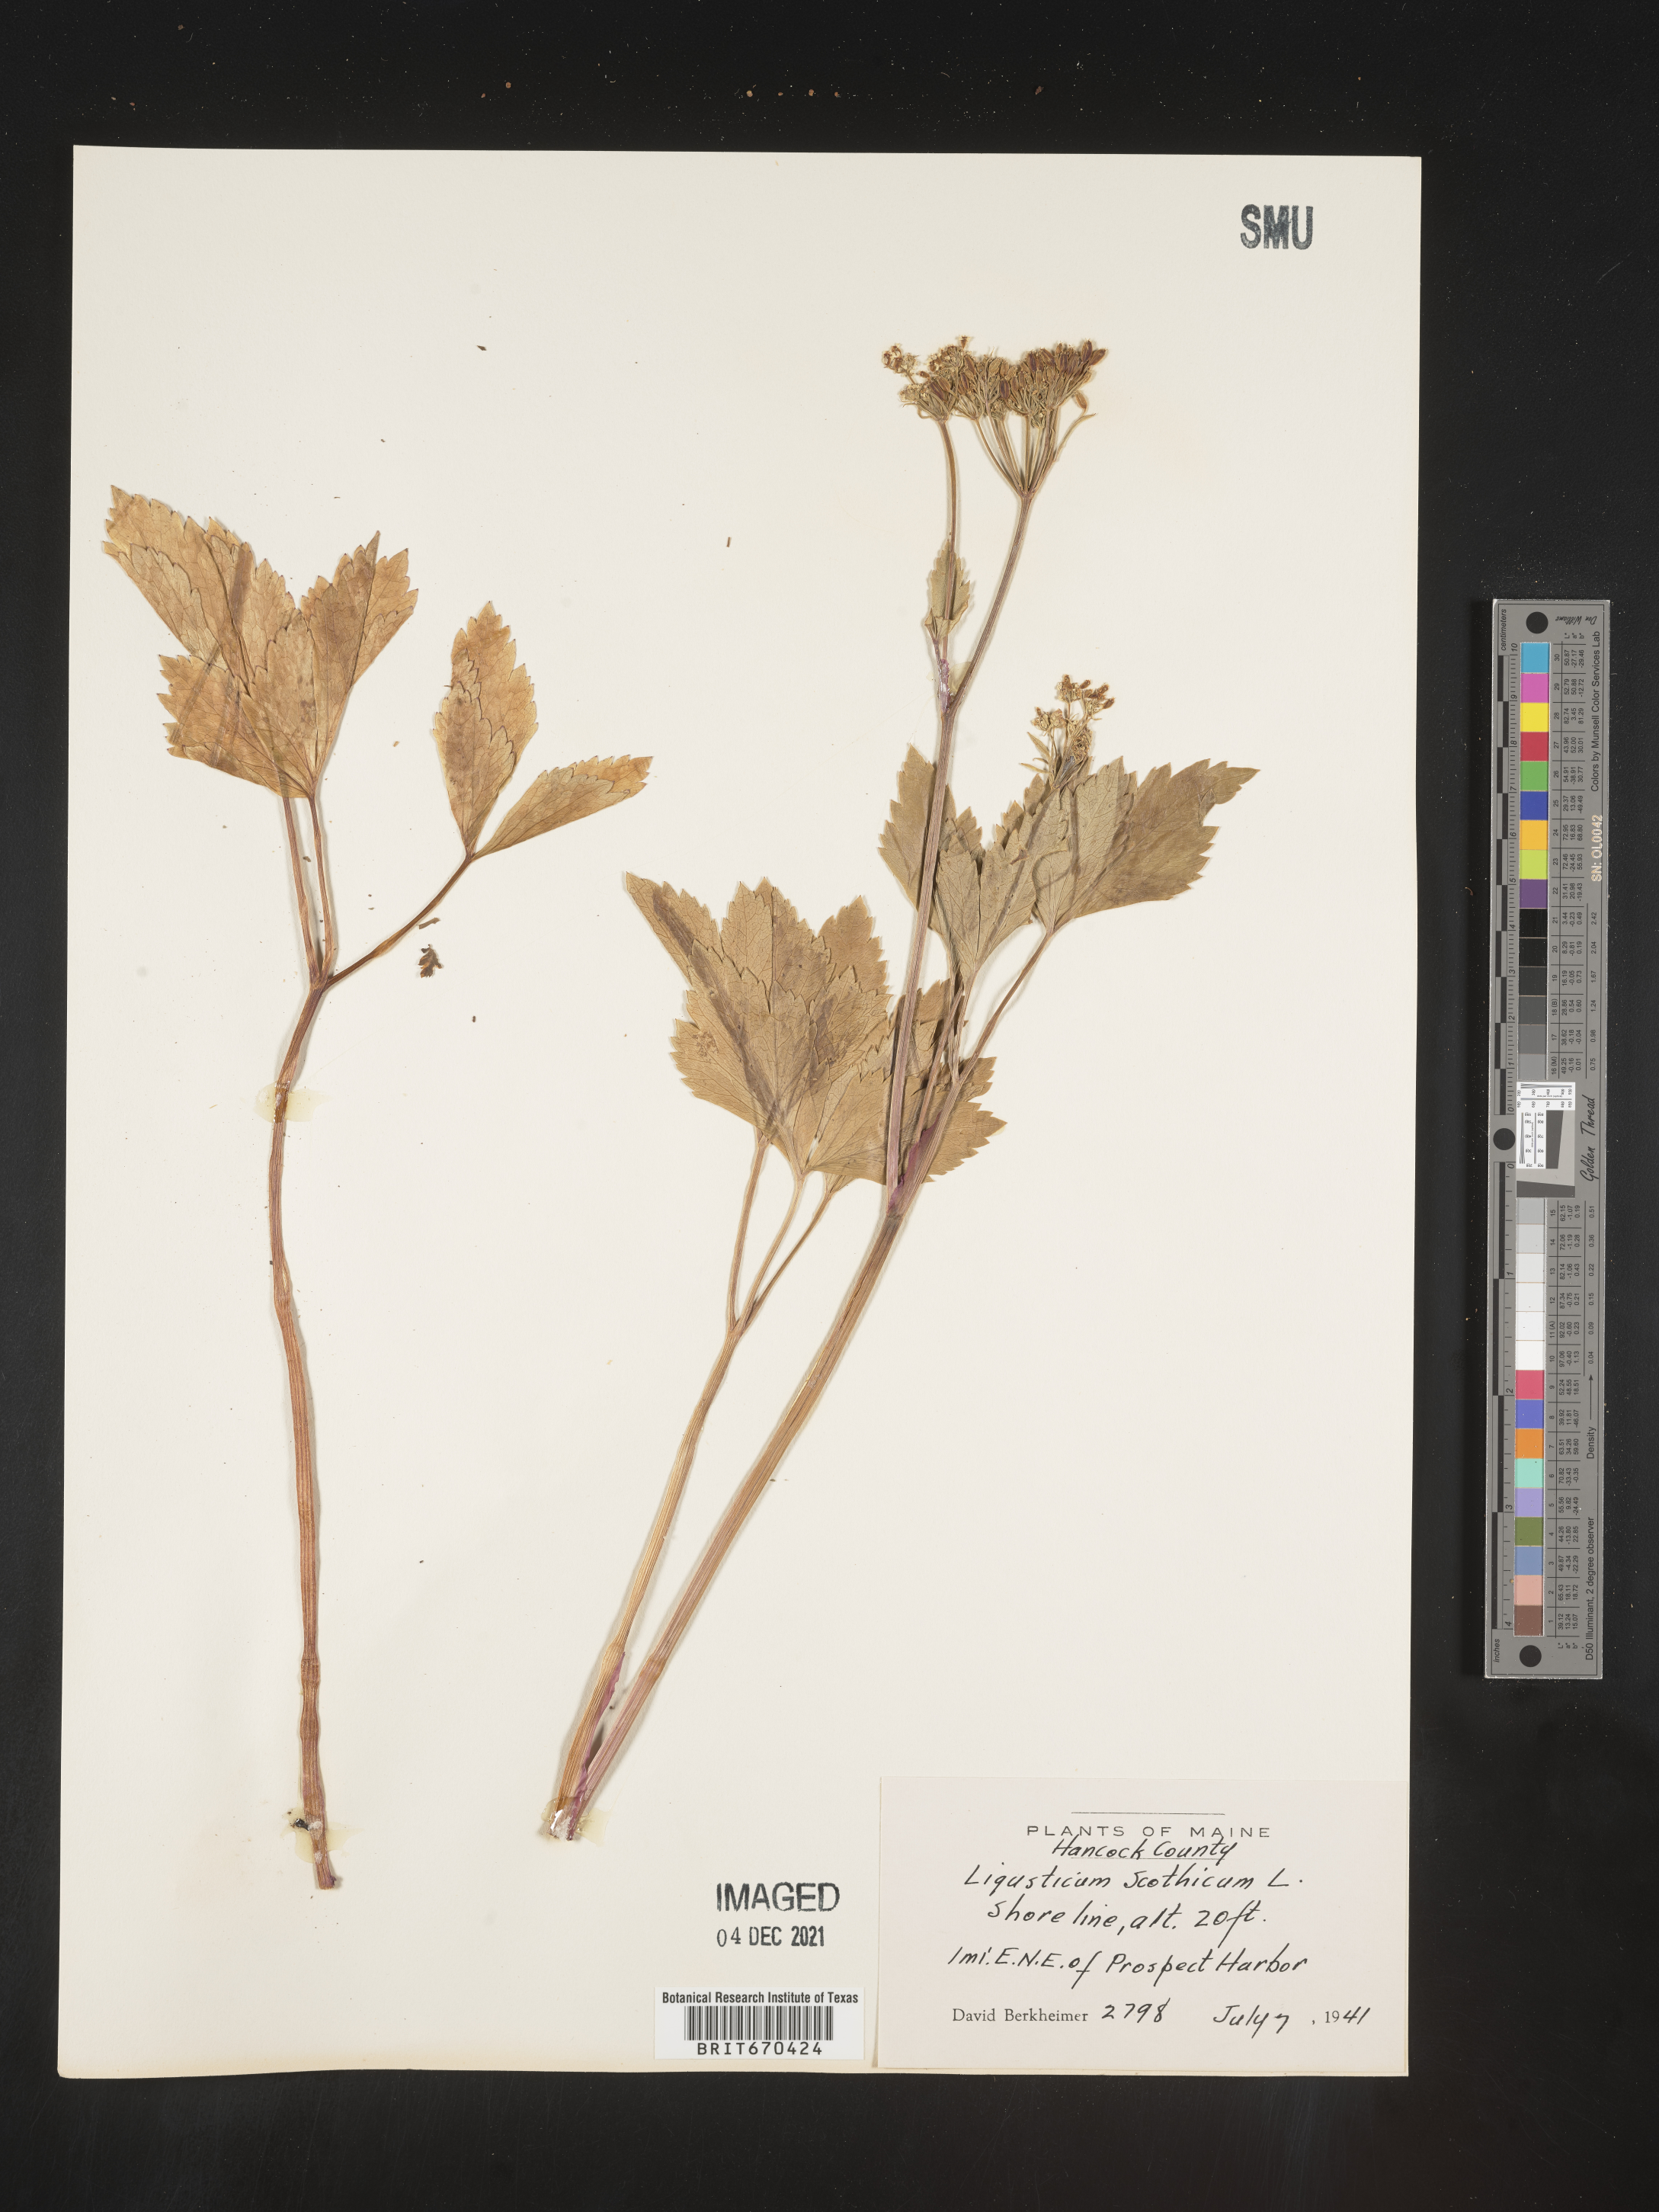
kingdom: Plantae
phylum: Tracheophyta
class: Magnoliopsida
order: Apiales
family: Apiaceae
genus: Ligusticum
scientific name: Ligusticum scothicum
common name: Beach lovage
